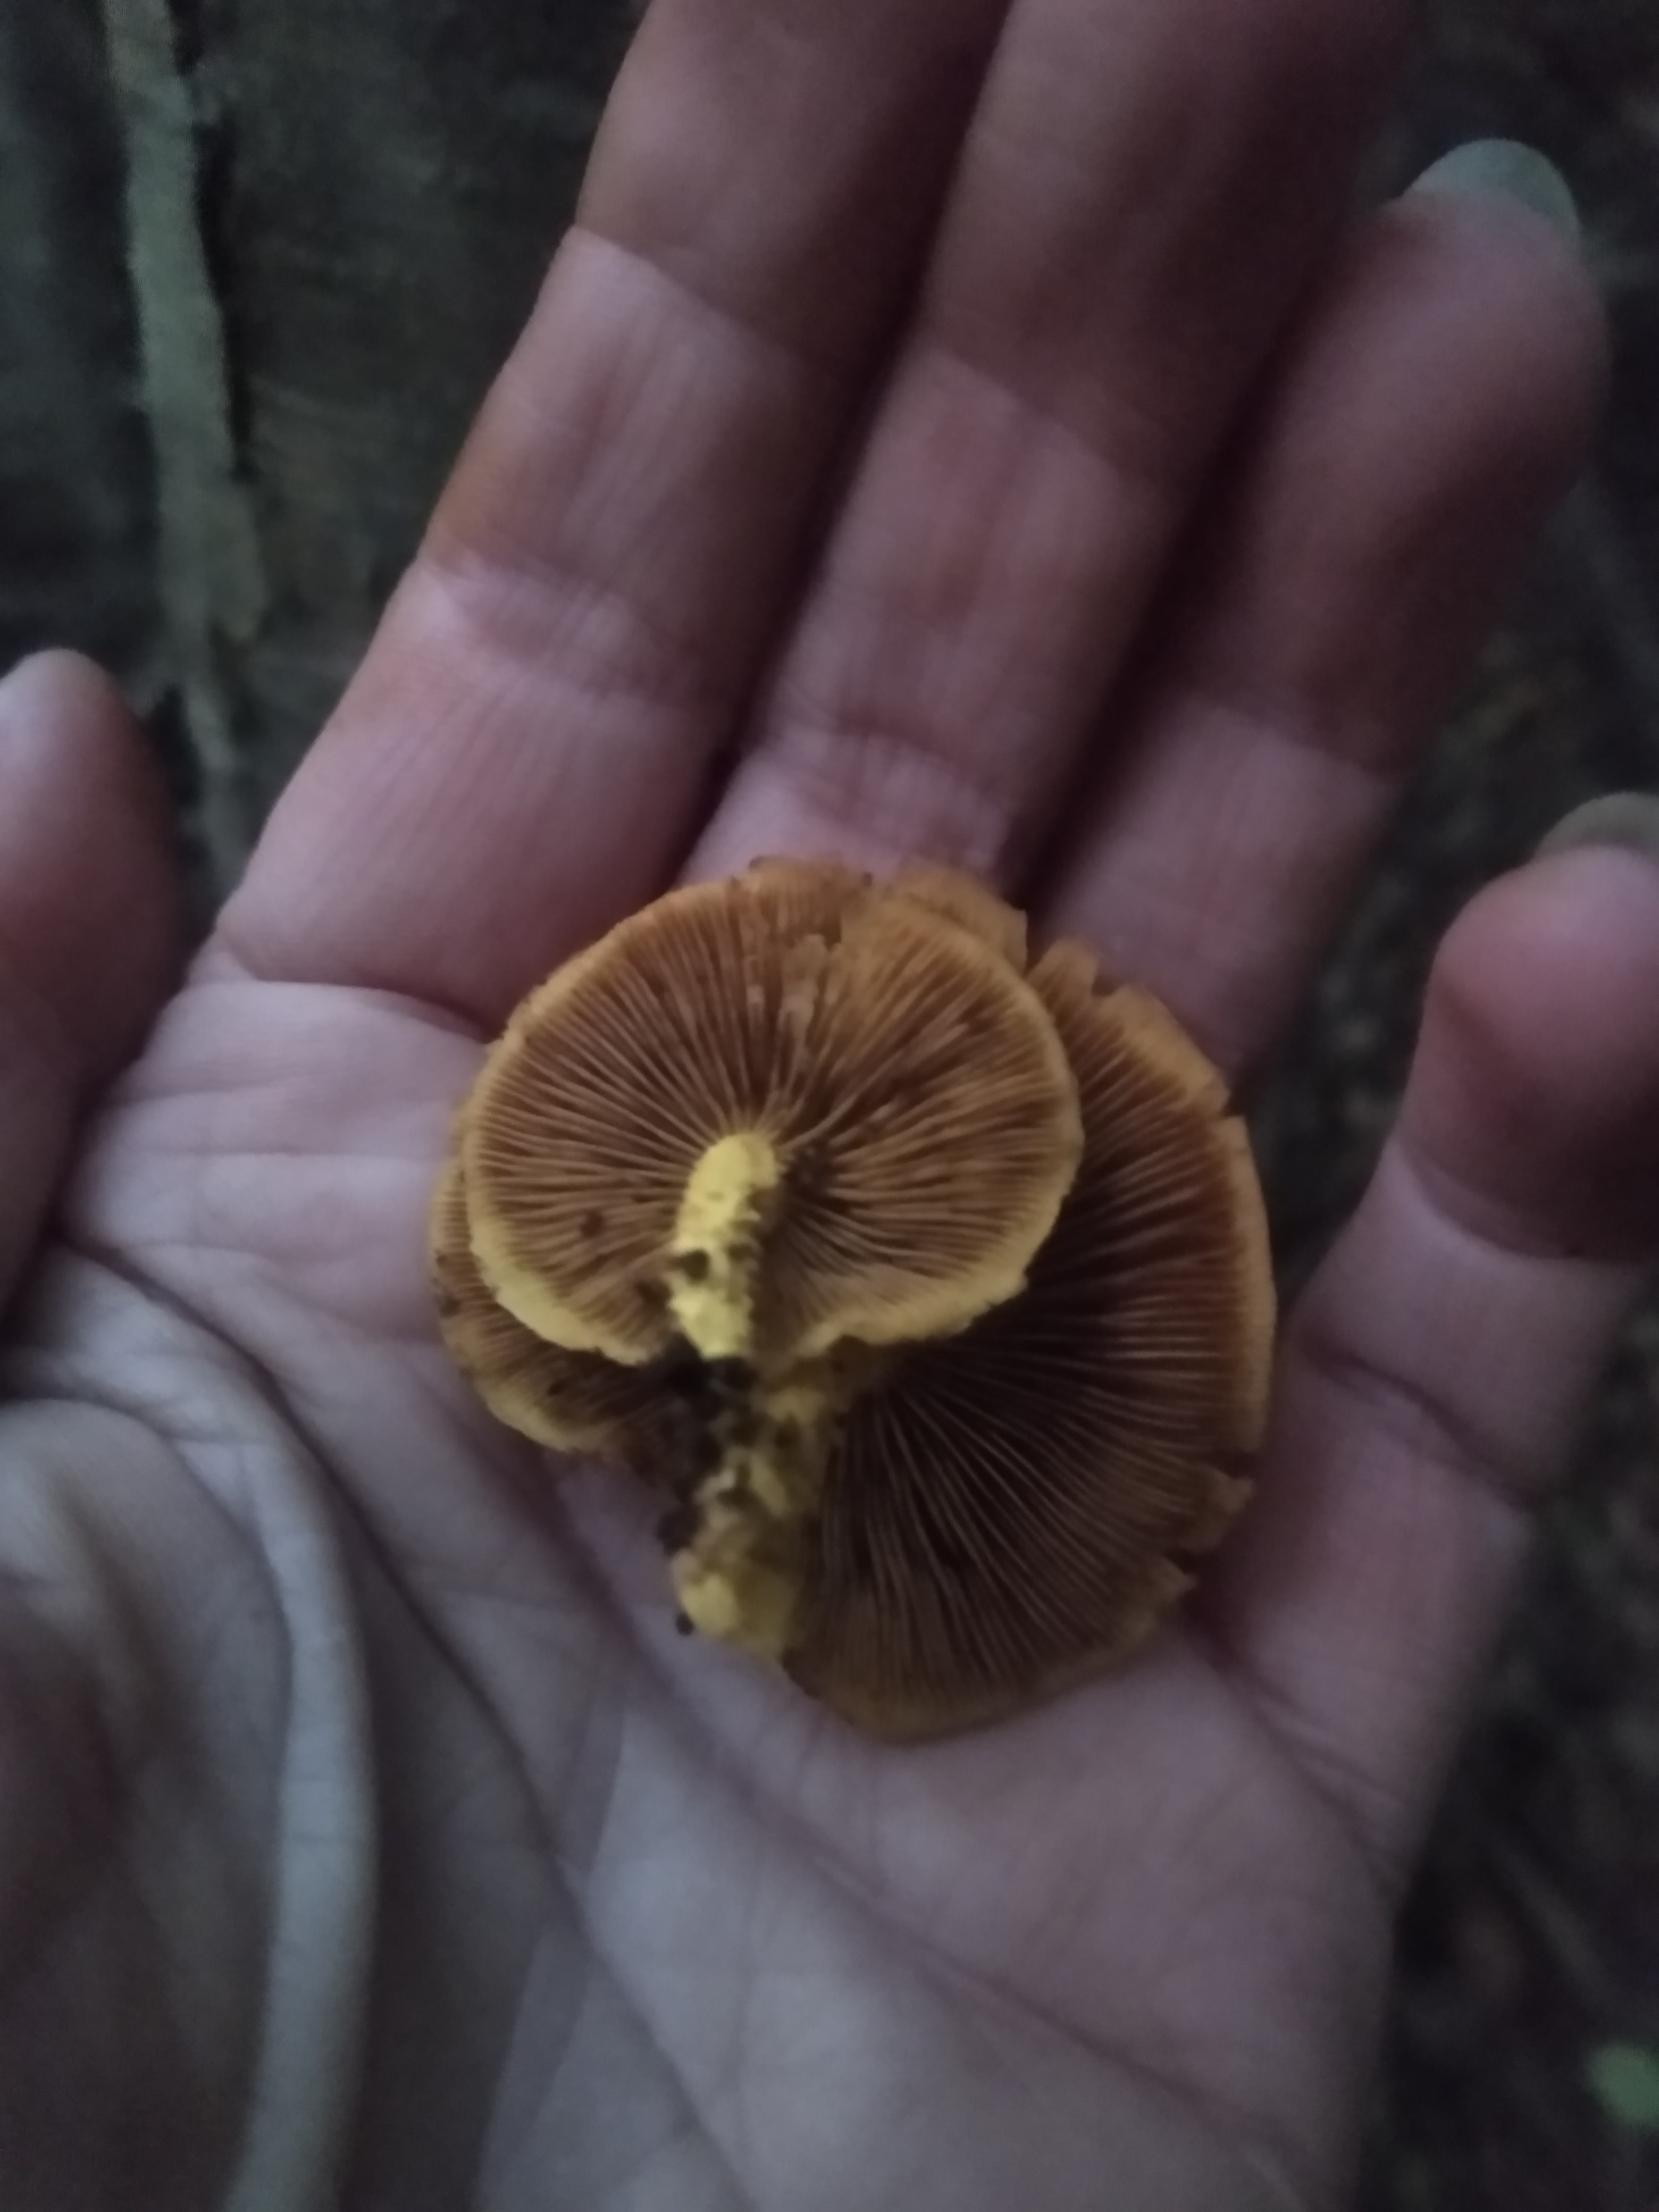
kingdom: Fungi
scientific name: Fungi
